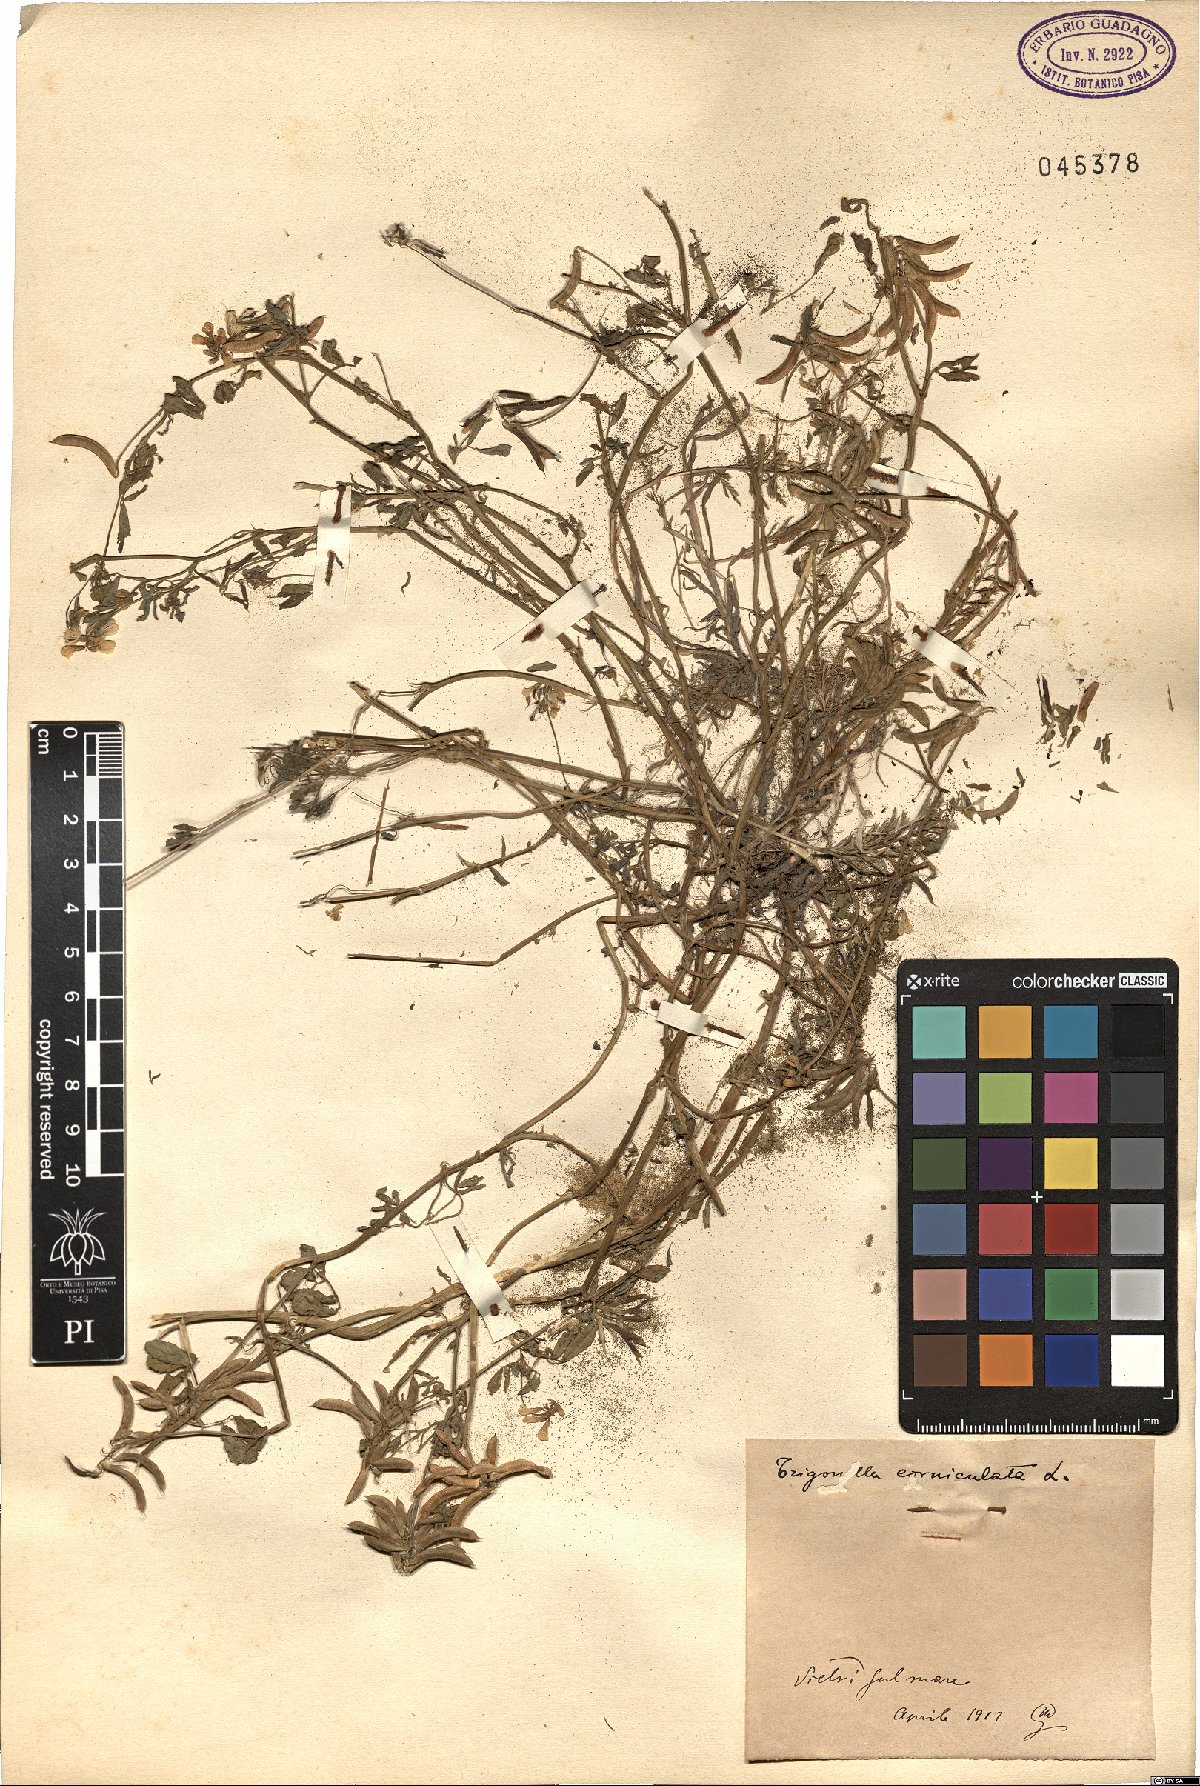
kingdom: Plantae
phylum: Tracheophyta
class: Magnoliopsida
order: Fabales
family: Fabaceae
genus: Trigonella
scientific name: Trigonella balansae
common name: Sickle-fruited fenugreek
